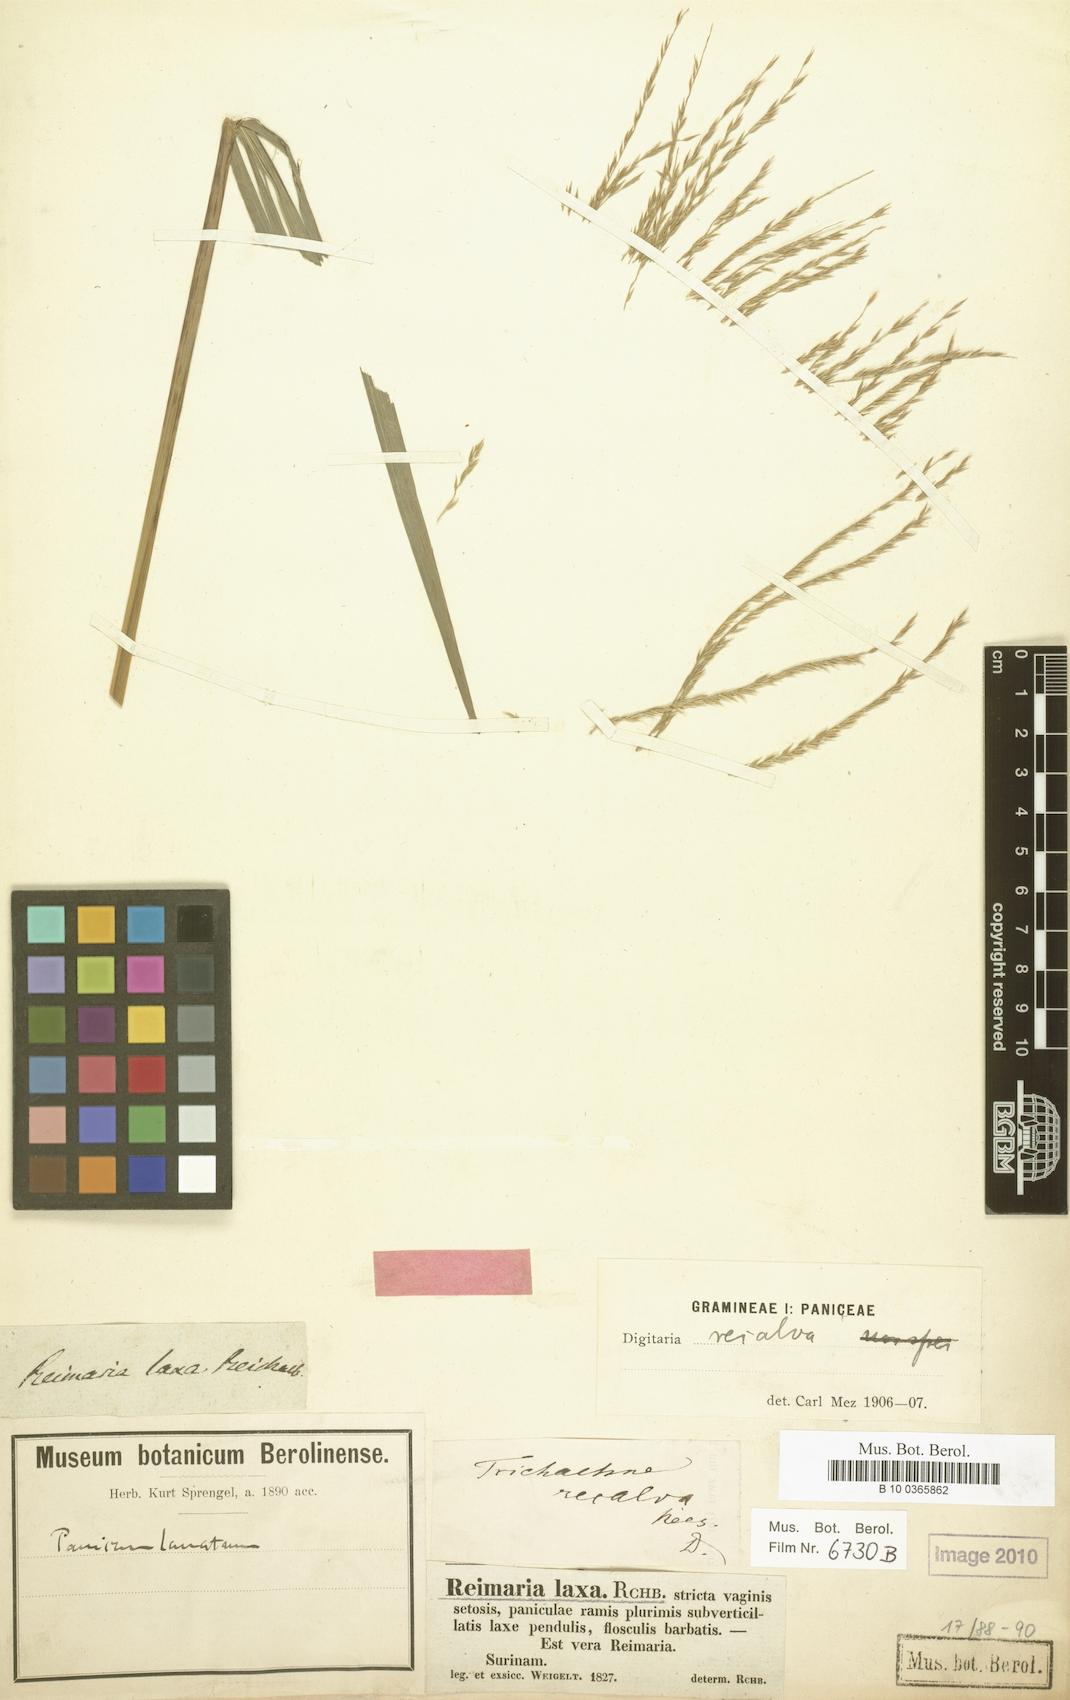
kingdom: Plantae
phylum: Tracheophyta
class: Liliopsida
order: Poales
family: Poaceae
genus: Digitaria
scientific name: Digitaria laxa
